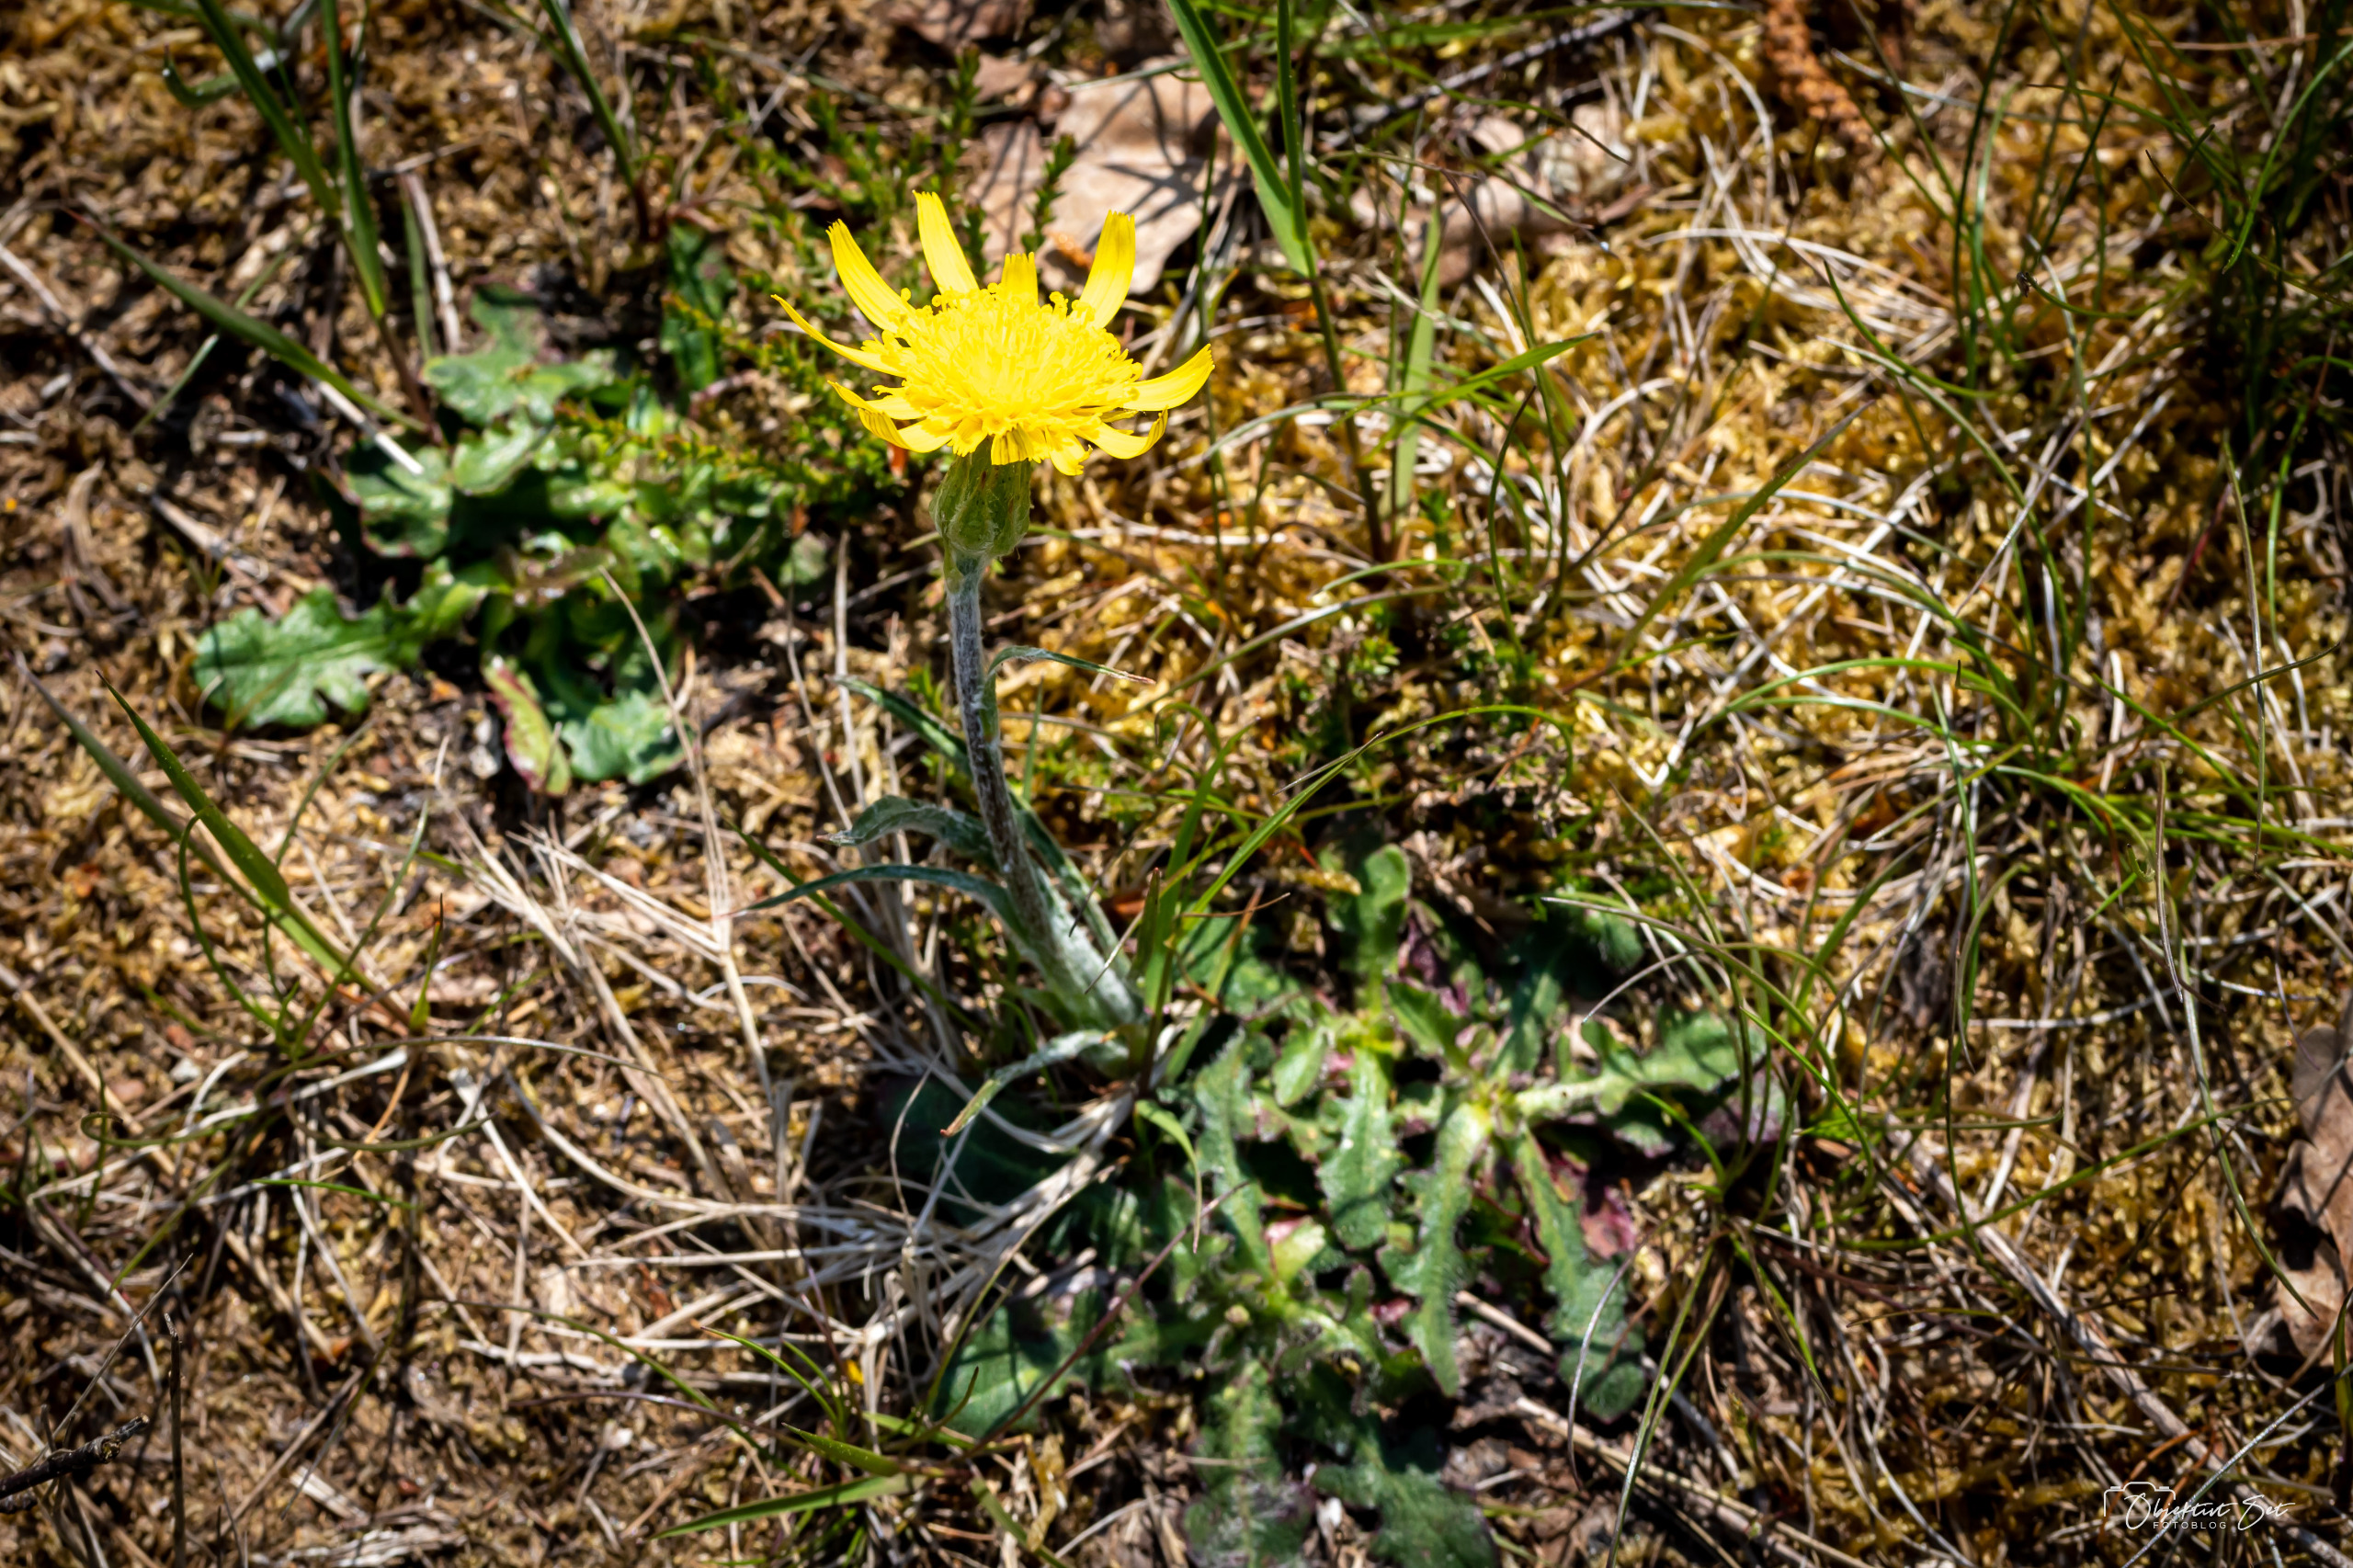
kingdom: Plantae
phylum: Tracheophyta
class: Magnoliopsida
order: Asterales
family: Asteraceae
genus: Scorzonera
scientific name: Scorzonera humilis
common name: Lav skorsoner
